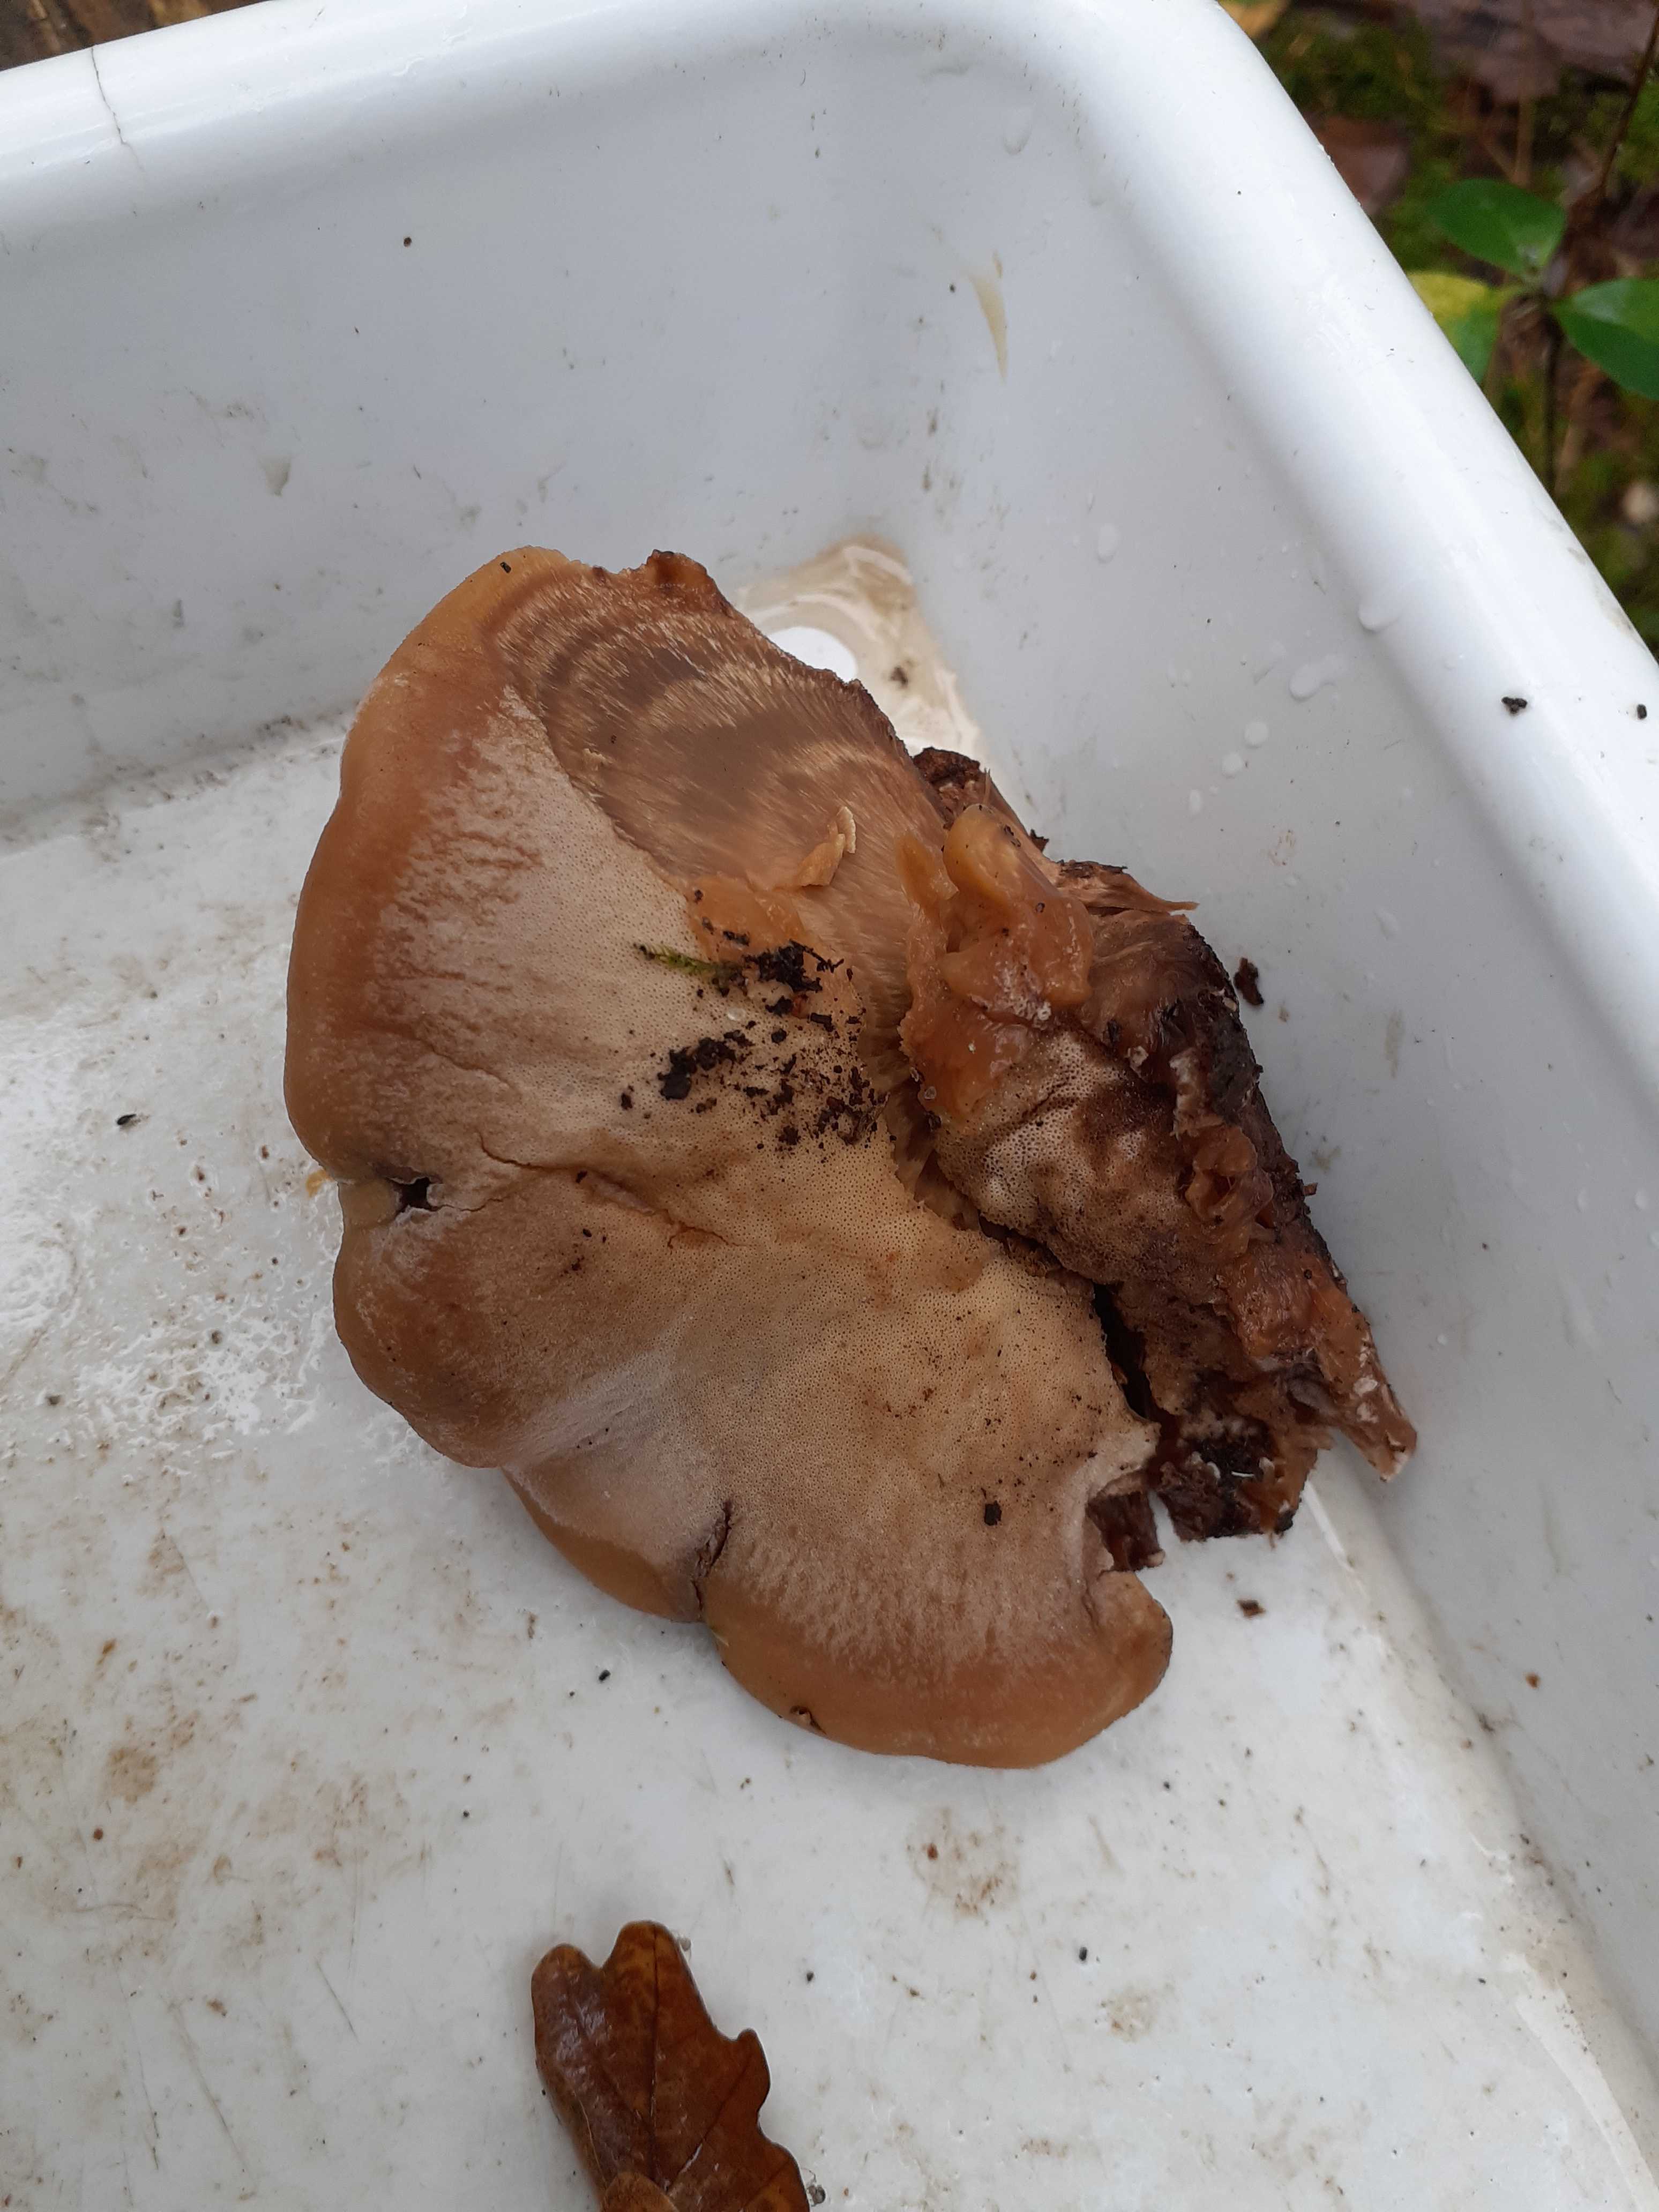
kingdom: Fungi
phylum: Basidiomycota
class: Agaricomycetes
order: Polyporales
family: Ischnodermataceae
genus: Ischnoderma
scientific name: Ischnoderma benzoinum
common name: gran-tjæreporesvamp
